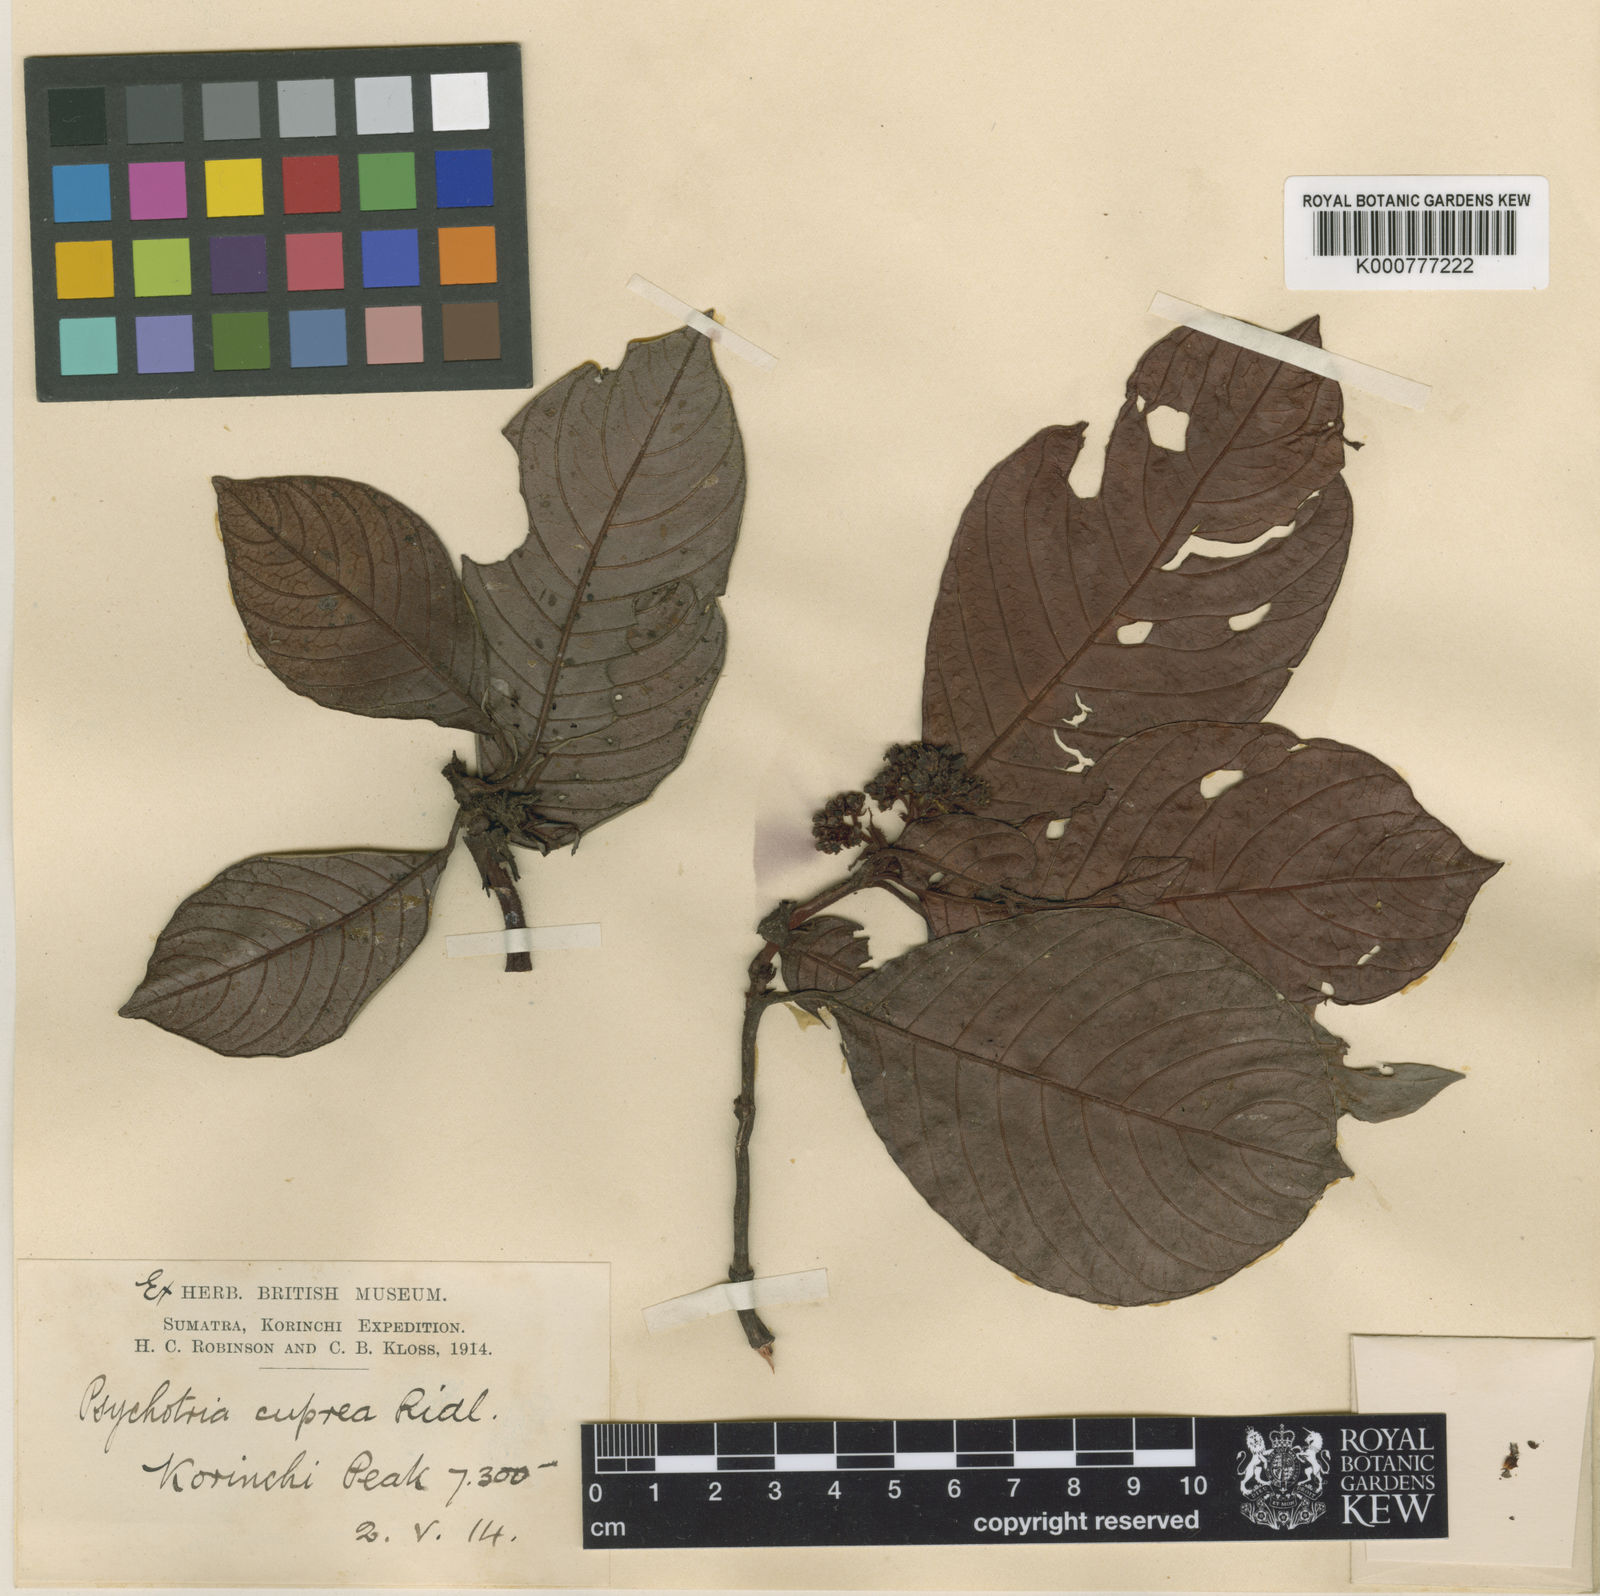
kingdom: Plantae
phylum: Tracheophyta
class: Magnoliopsida
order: Gentianales
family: Rubiaceae
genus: Psychotria
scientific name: Psychotria cuprea
